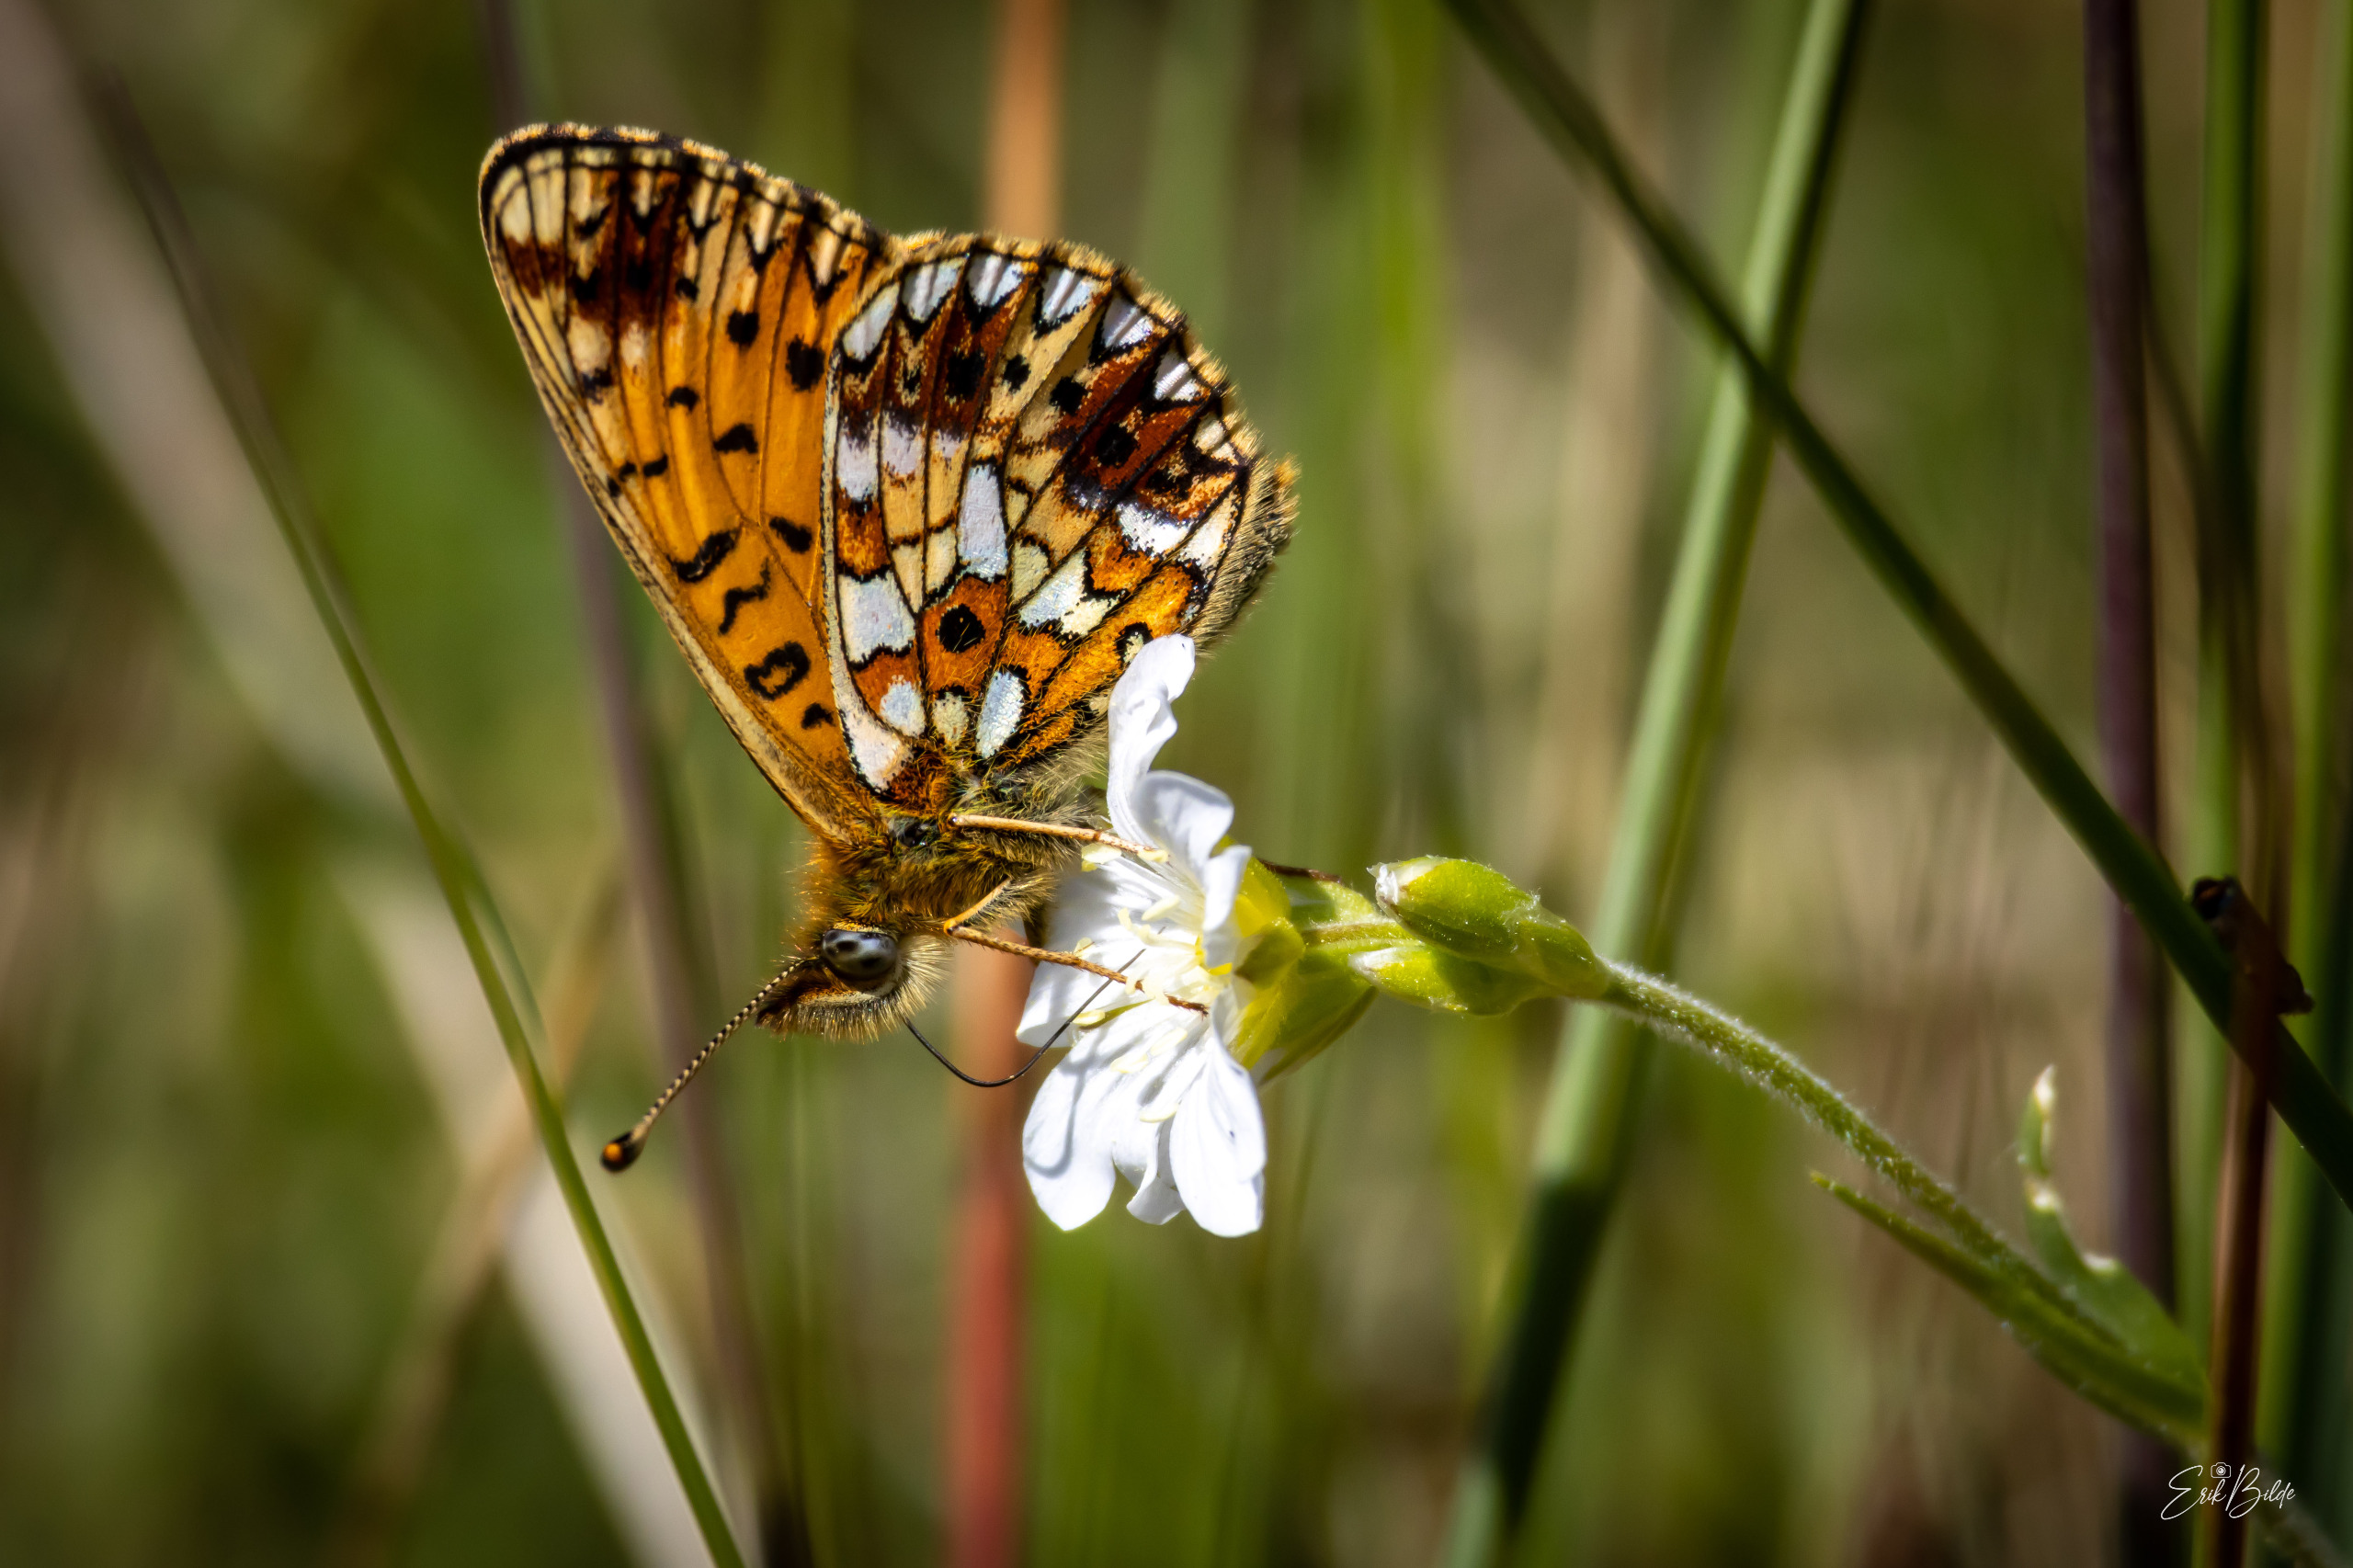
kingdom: Animalia
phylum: Arthropoda
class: Insecta
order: Lepidoptera
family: Nymphalidae
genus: Boloria
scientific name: Boloria selene
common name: Brunlig perlemorsommerfugl
